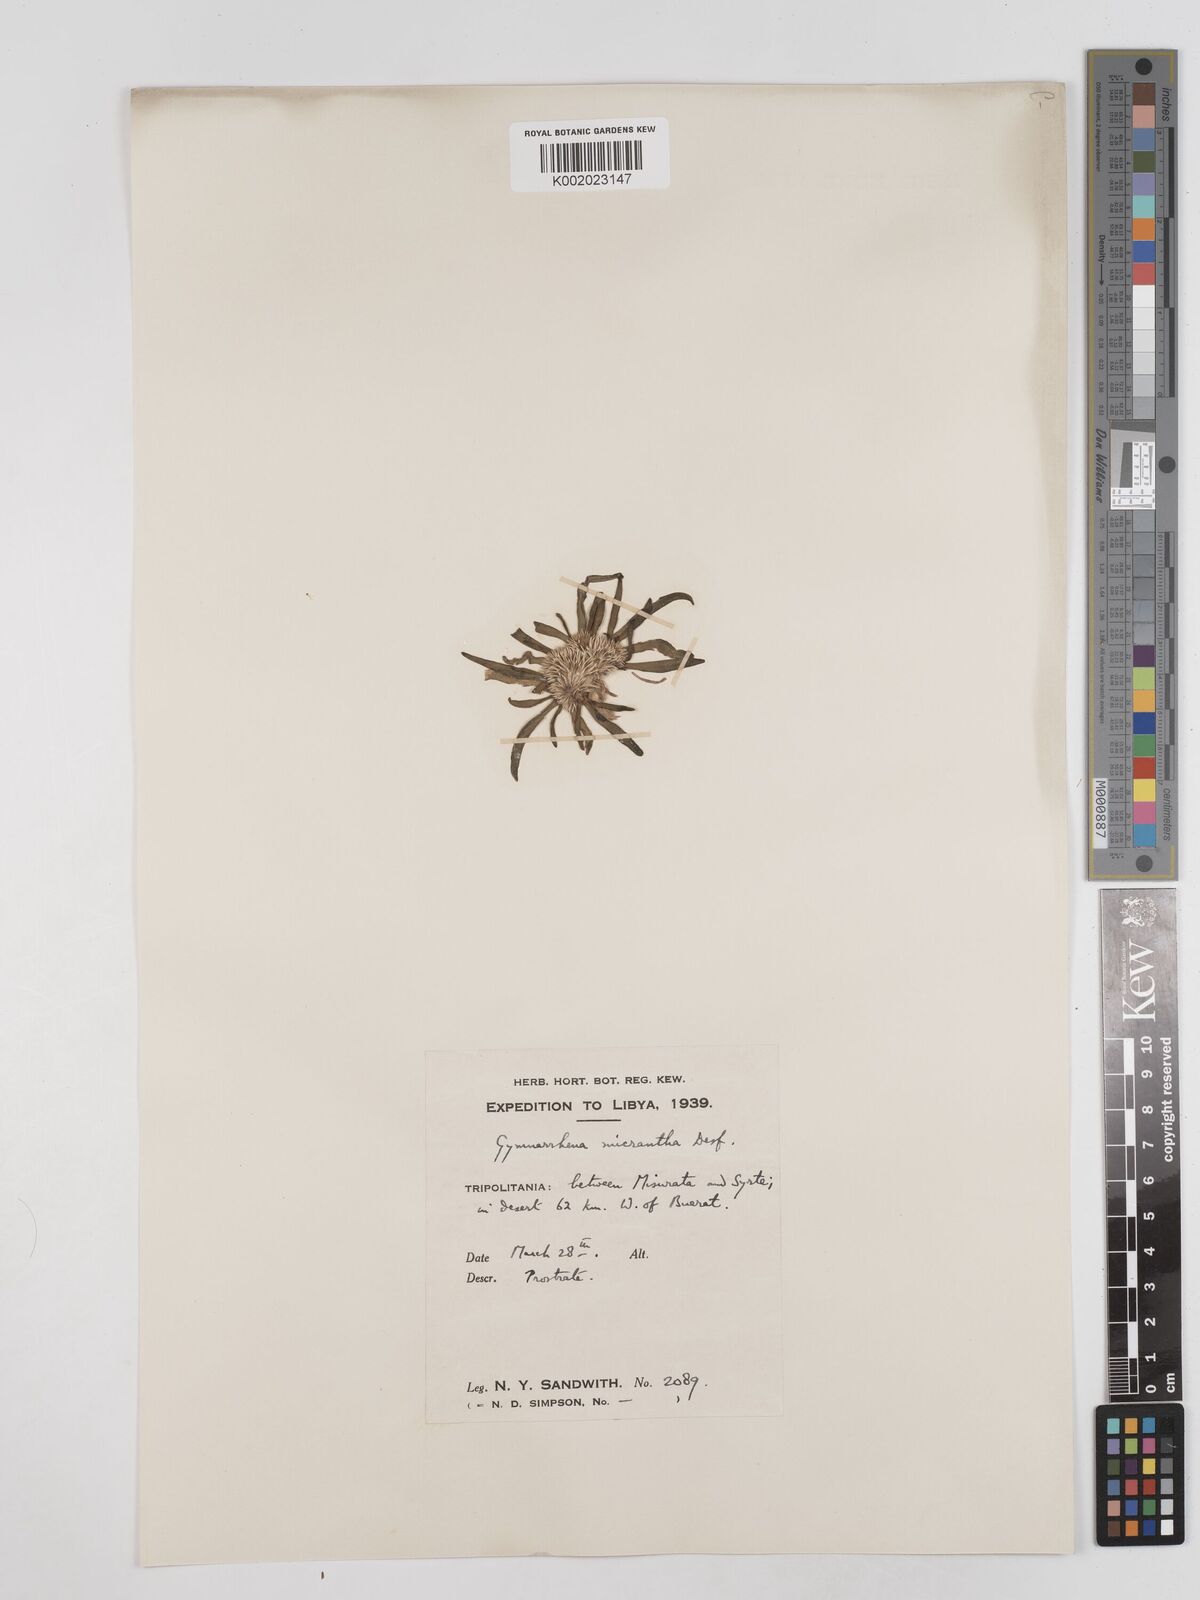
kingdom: Plantae
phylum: Tracheophyta
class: Magnoliopsida
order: Asterales
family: Asteraceae
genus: Gymnarrhena
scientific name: Gymnarrhena micrantha
